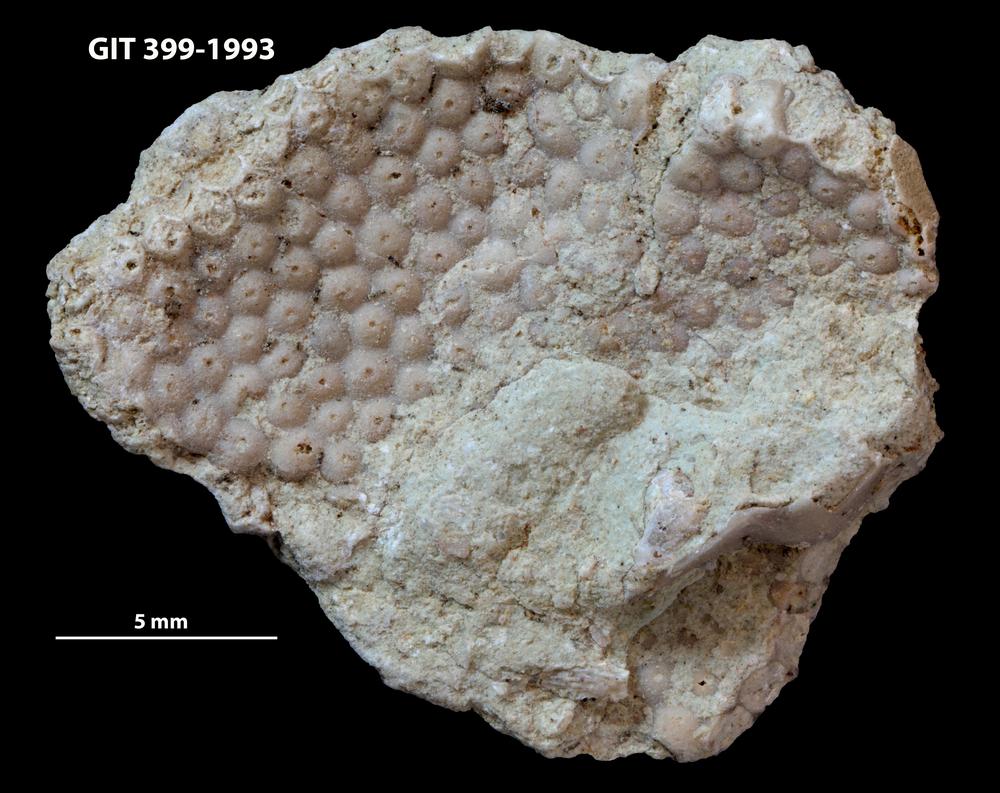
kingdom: Plantae
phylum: Chlorophyta
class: Ulvophyceae
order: Cyclocrinales
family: Cyclocrinaceae
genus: Mastopora
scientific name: Mastopora concava
